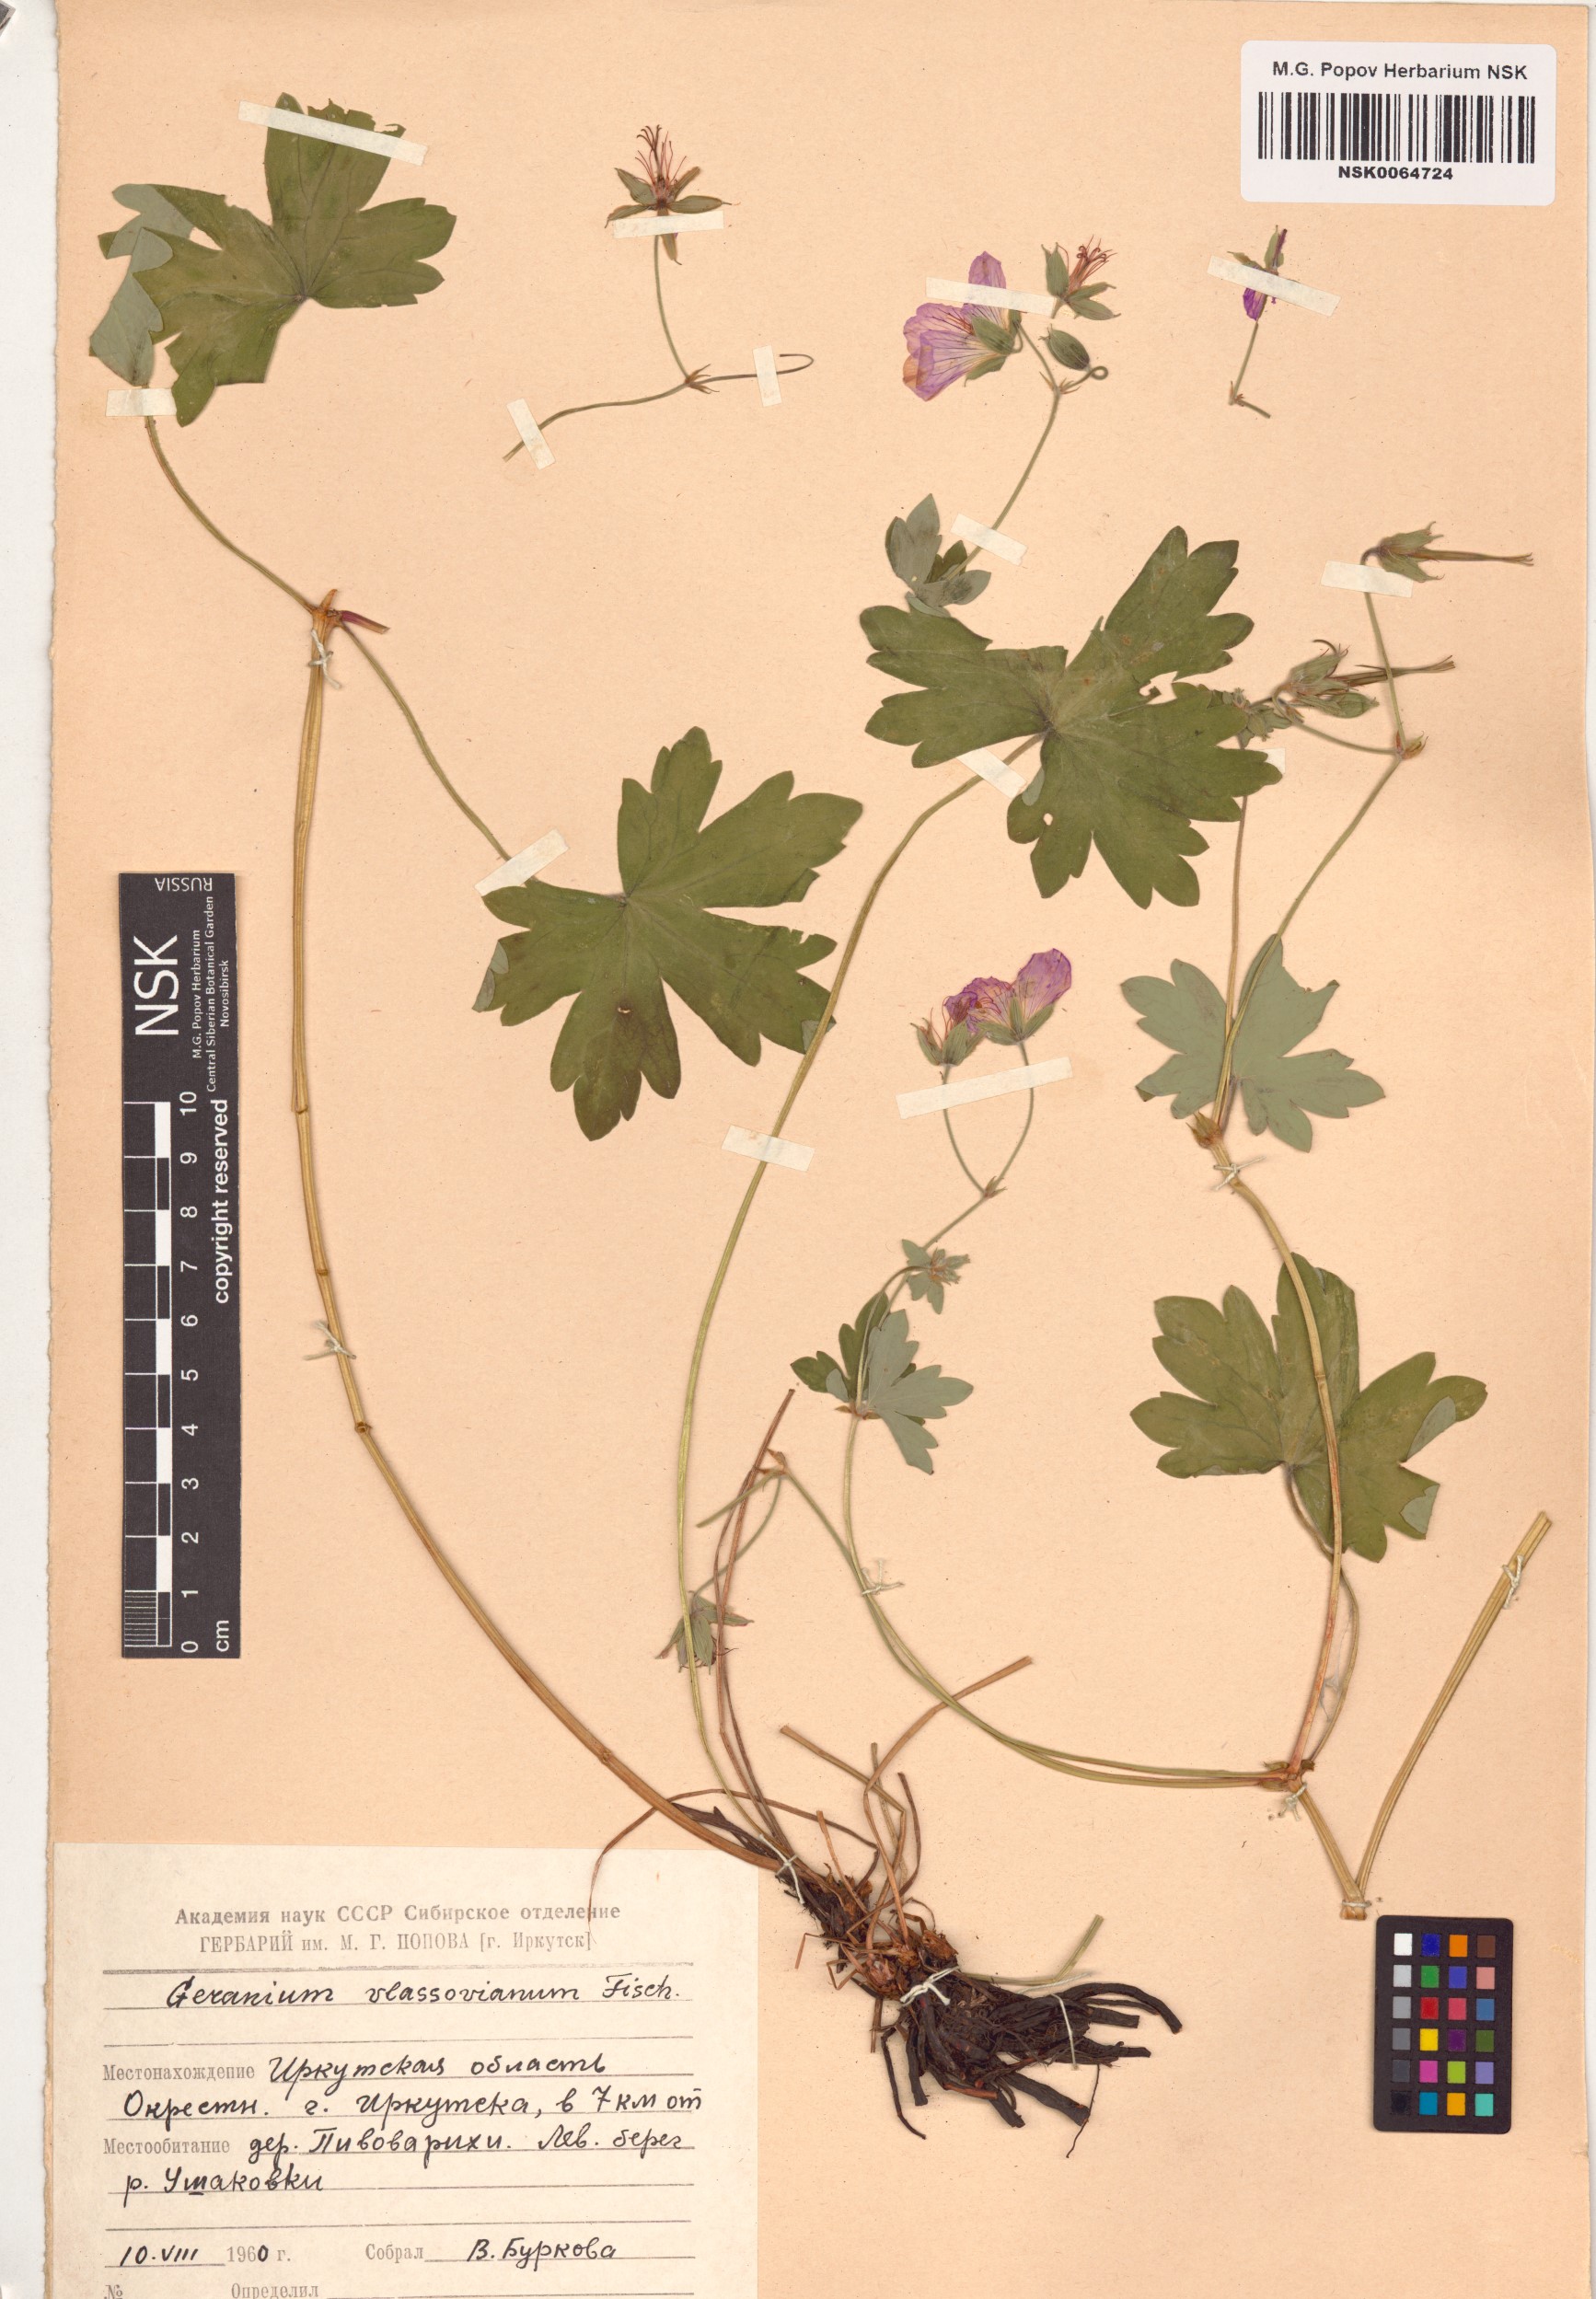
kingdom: Plantae
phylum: Tracheophyta
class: Magnoliopsida
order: Geraniales
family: Geraniaceae
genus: Geranium
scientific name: Geranium wlassovianum
